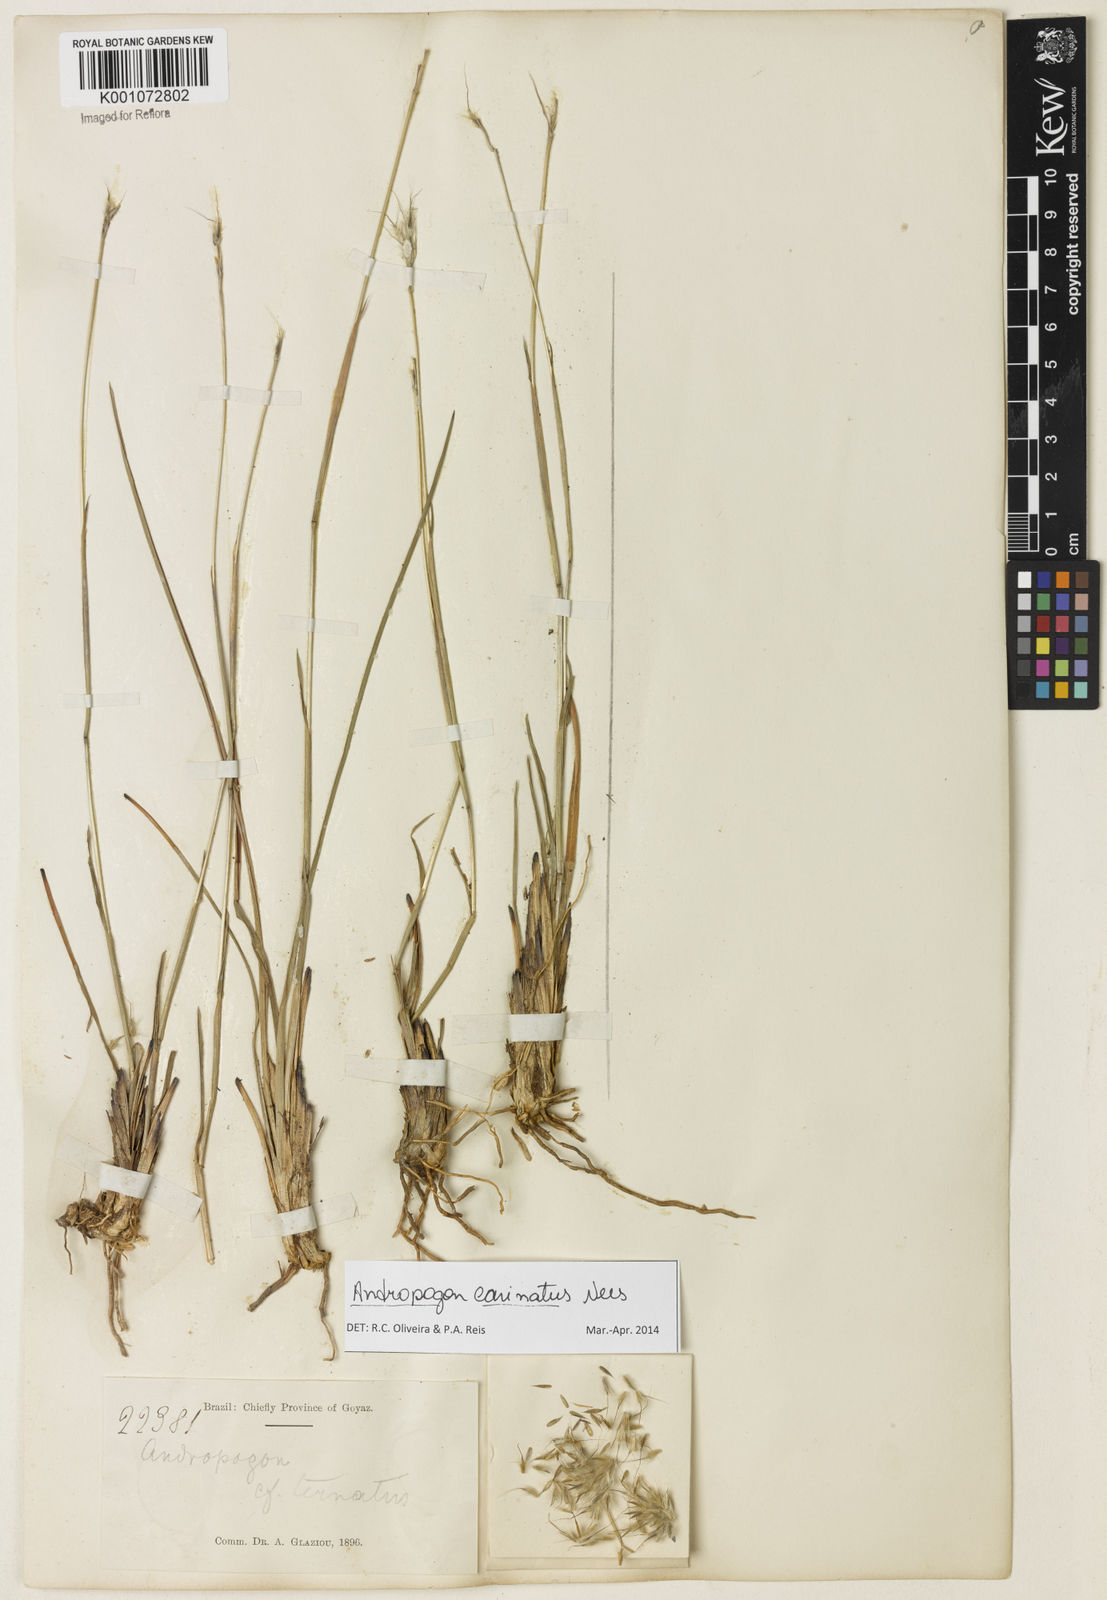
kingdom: Plantae
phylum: Tracheophyta
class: Liliopsida
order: Poales
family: Poaceae
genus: Andropogon
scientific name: Andropogon carinatus
